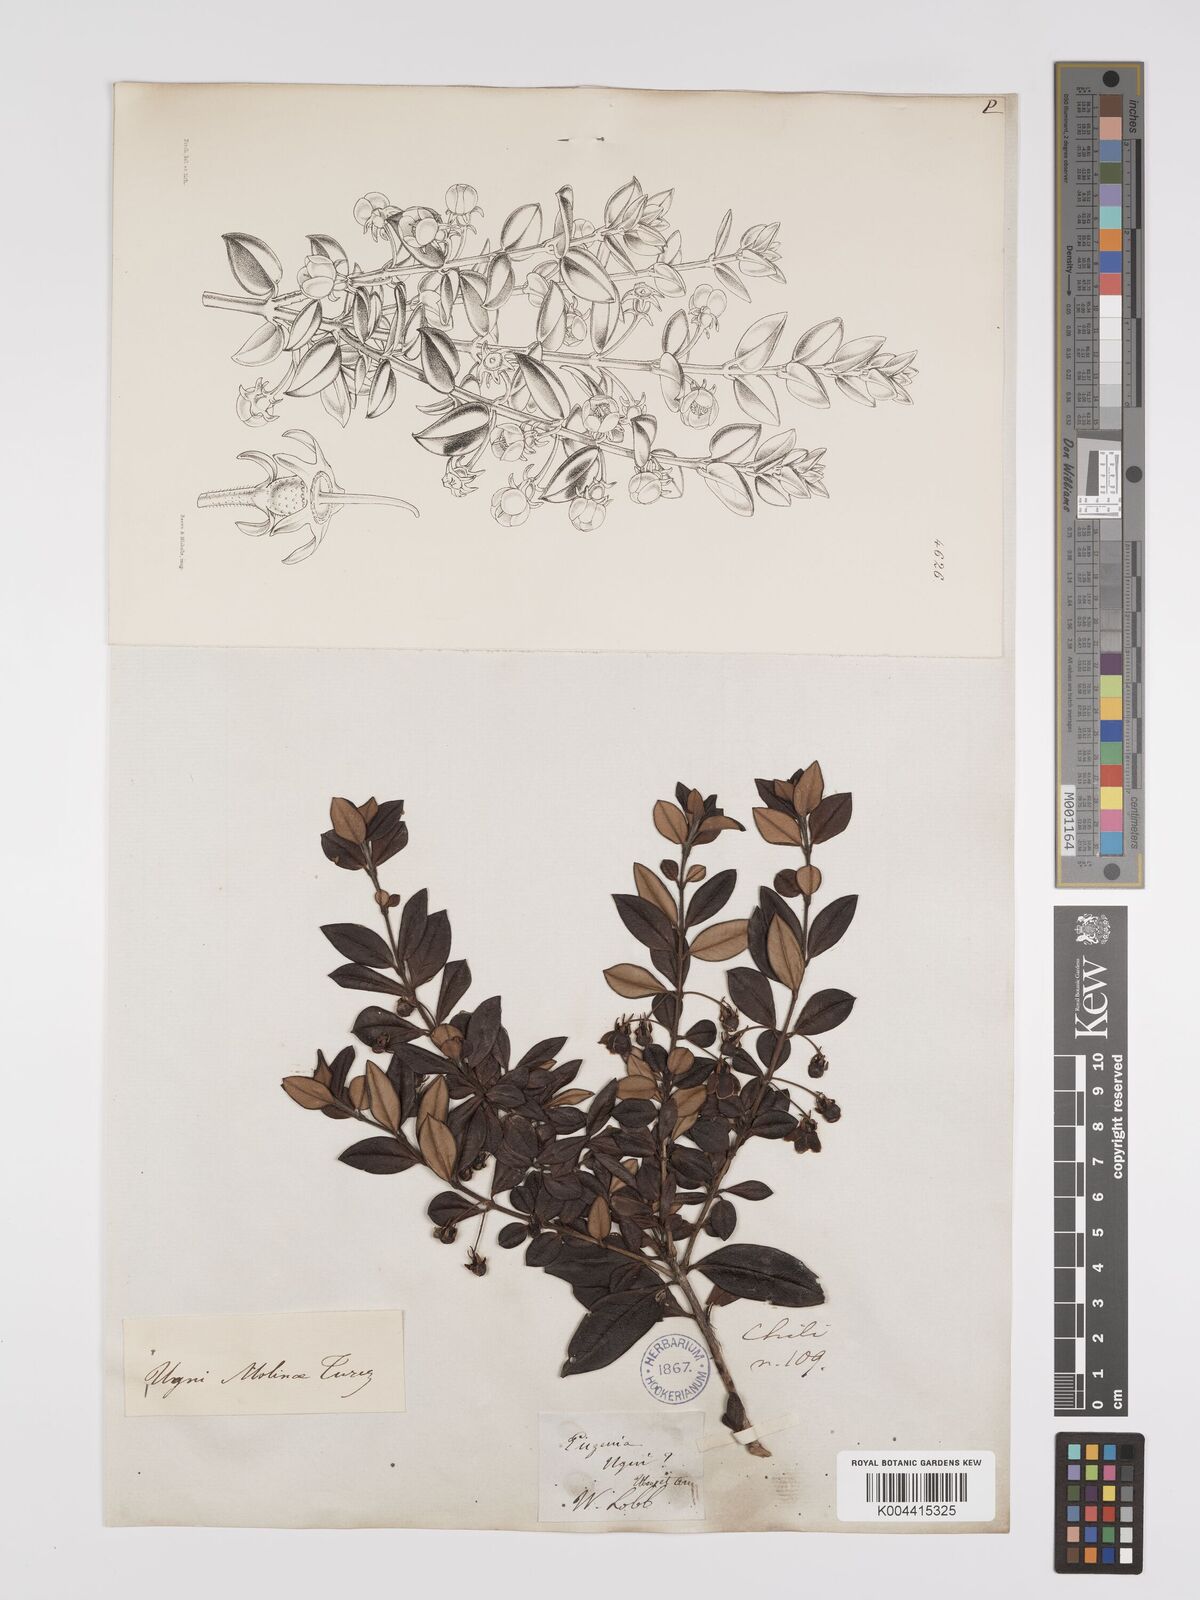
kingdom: Plantae
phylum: Tracheophyta
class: Magnoliopsida
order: Myrtales
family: Myrtaceae
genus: Ugni
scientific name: Ugni molinae
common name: Chilean-guava
